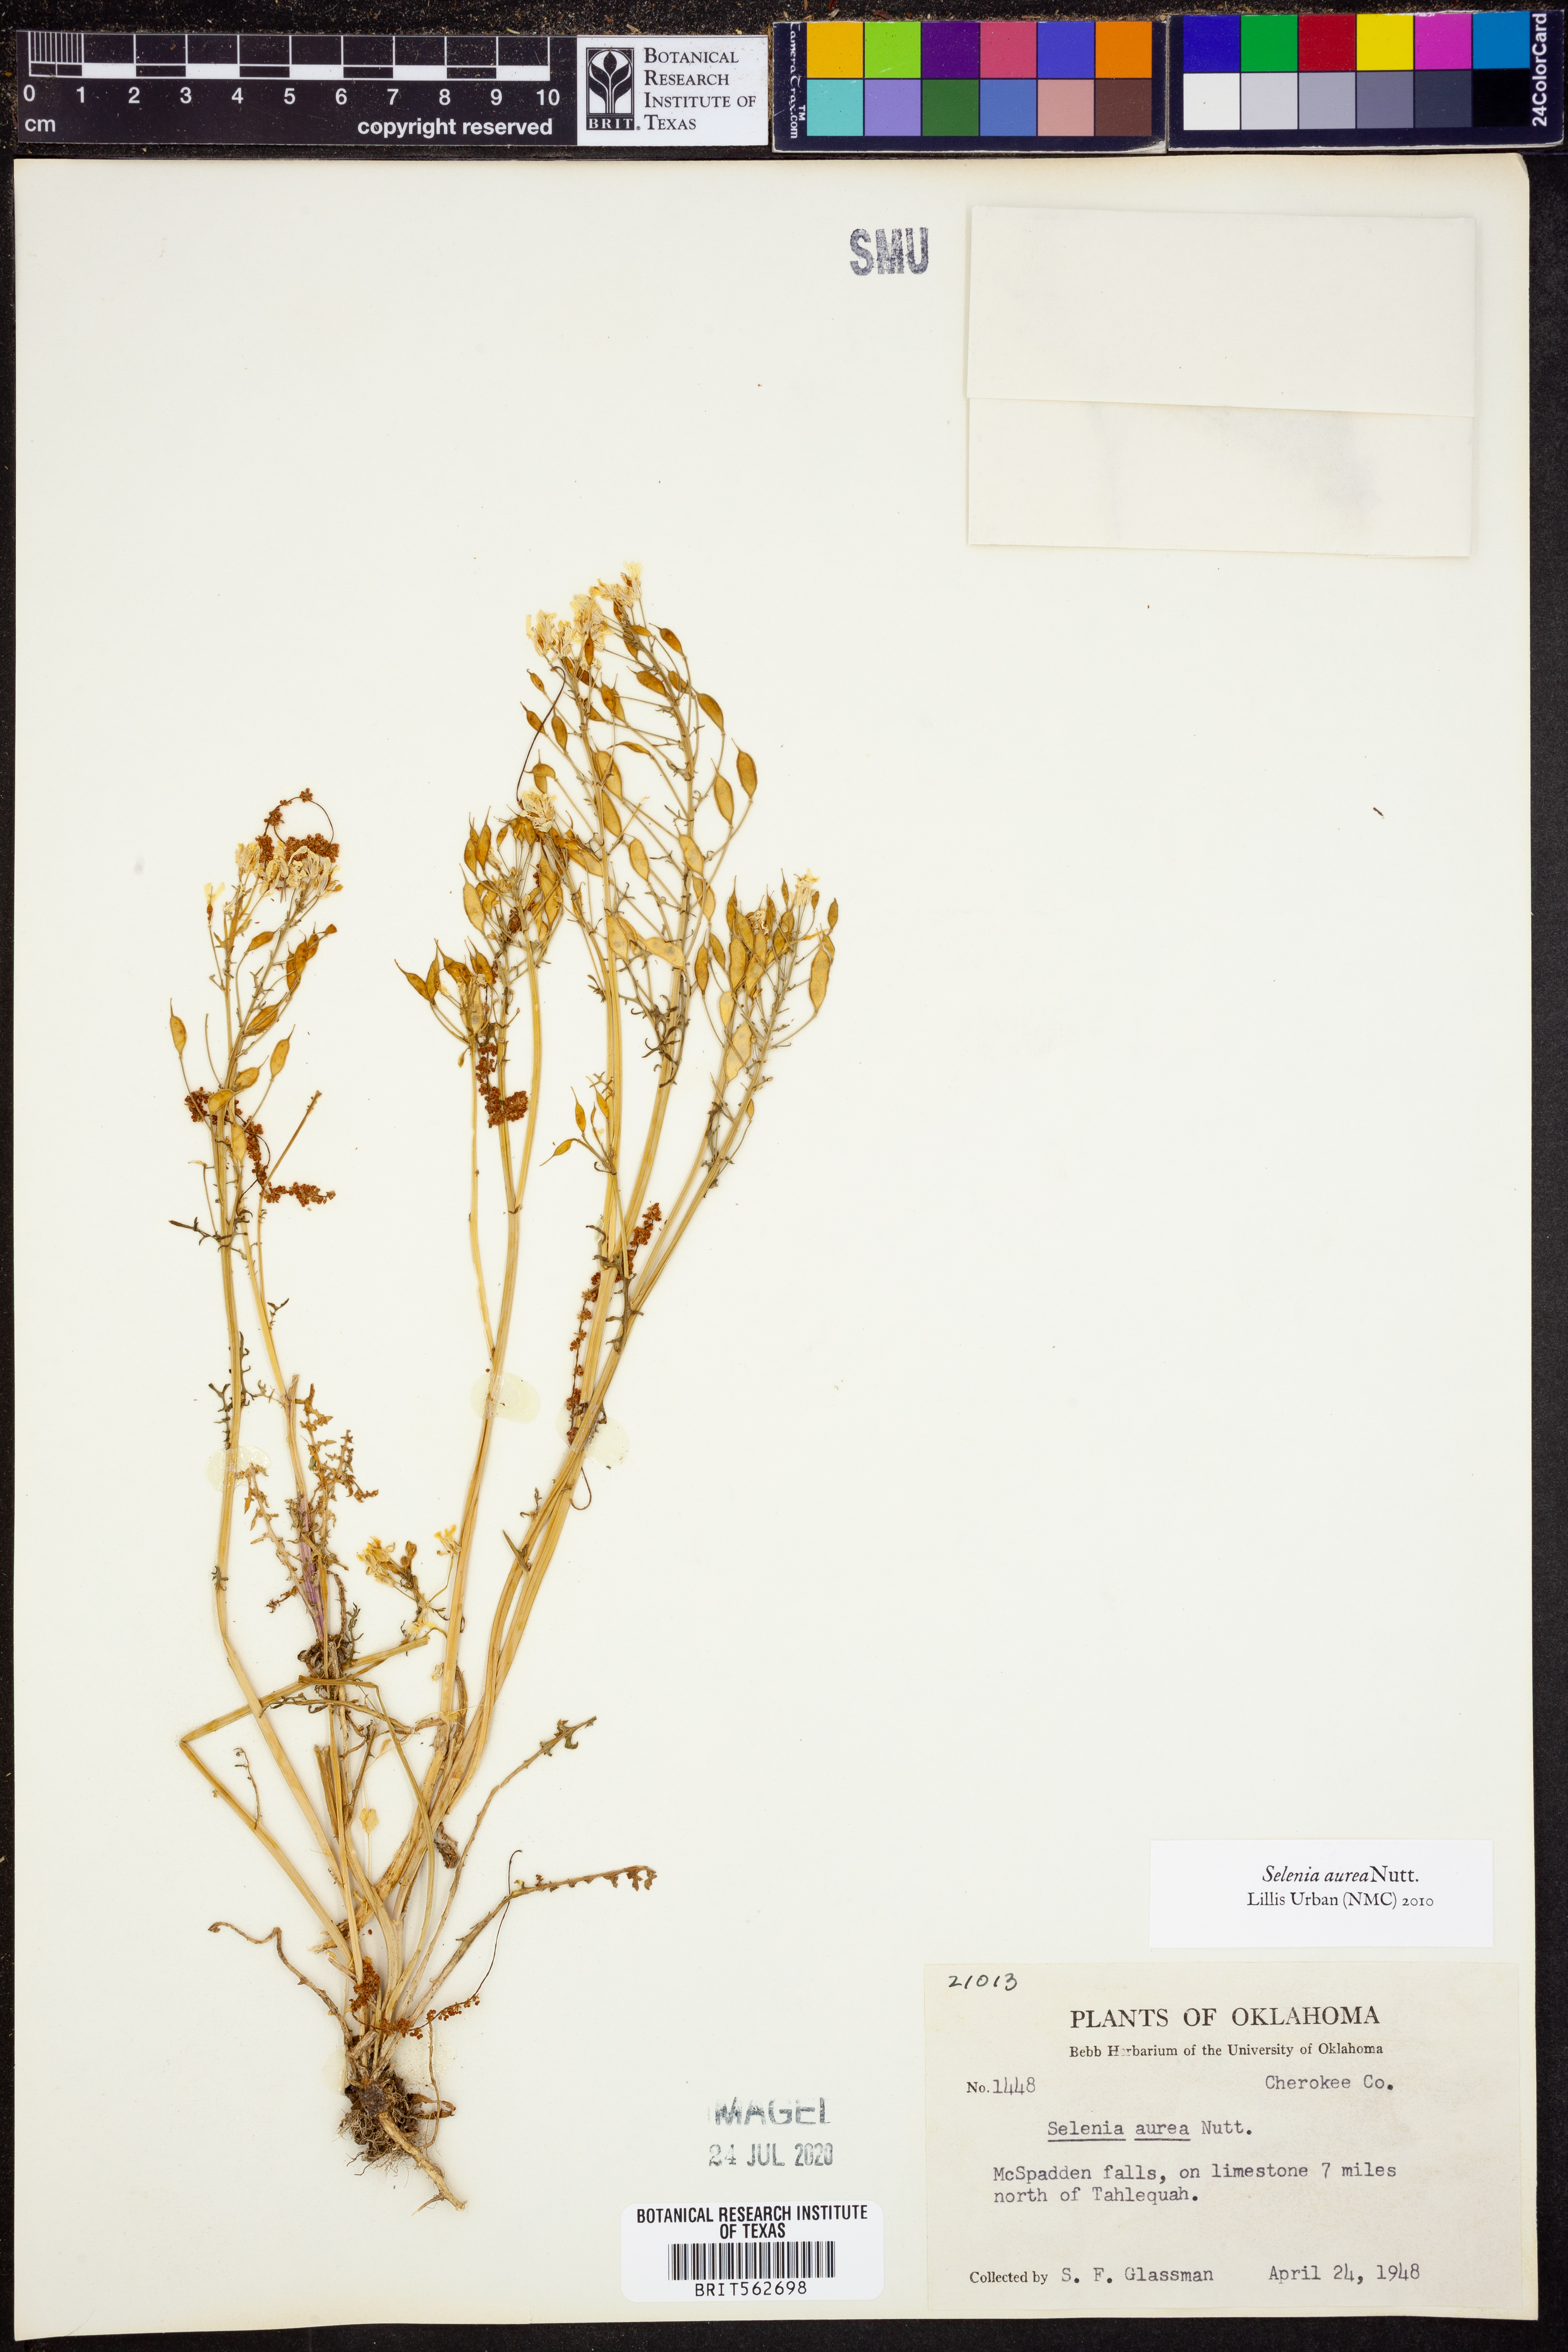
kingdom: Plantae
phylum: Tracheophyta
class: Magnoliopsida
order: Brassicales
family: Brassicaceae
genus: Selenia
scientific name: Selenia aurea
